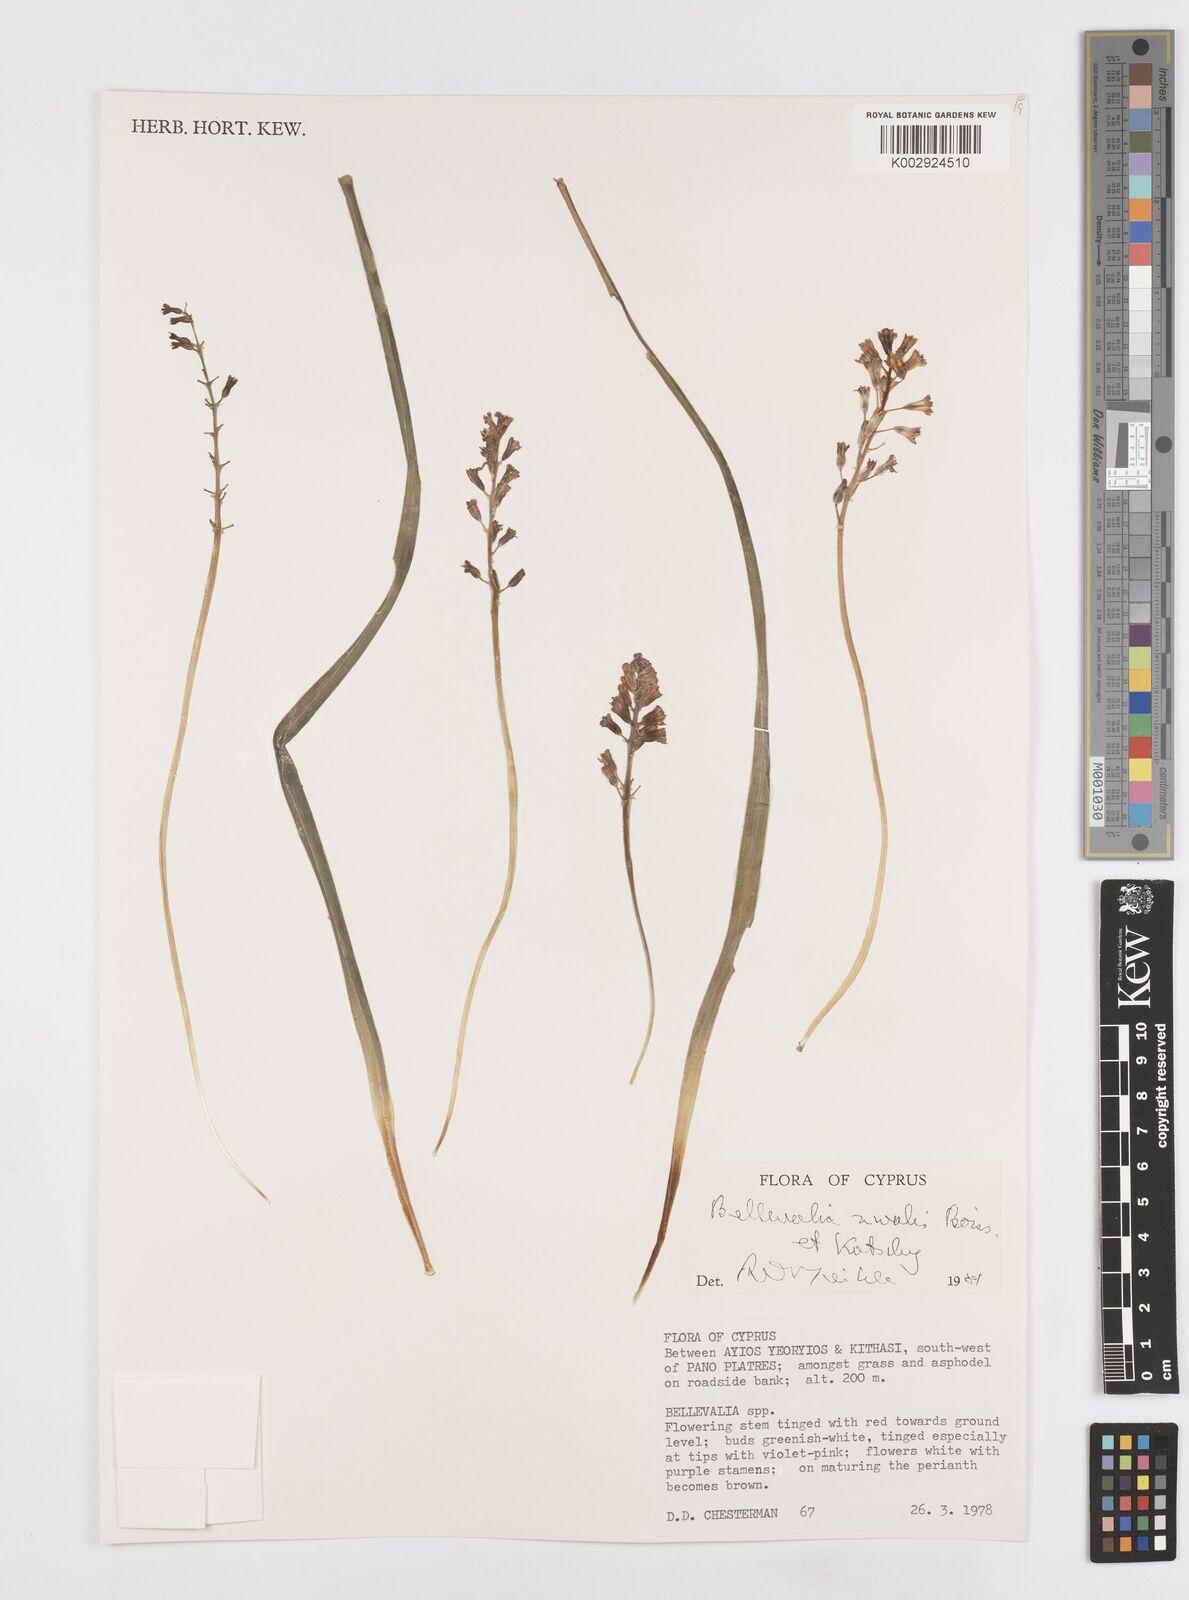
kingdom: Plantae
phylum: Tracheophyta
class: Liliopsida
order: Asparagales
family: Asparagaceae
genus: Bellevalia
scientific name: Bellevalia nivalis
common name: Snow bellevalia
